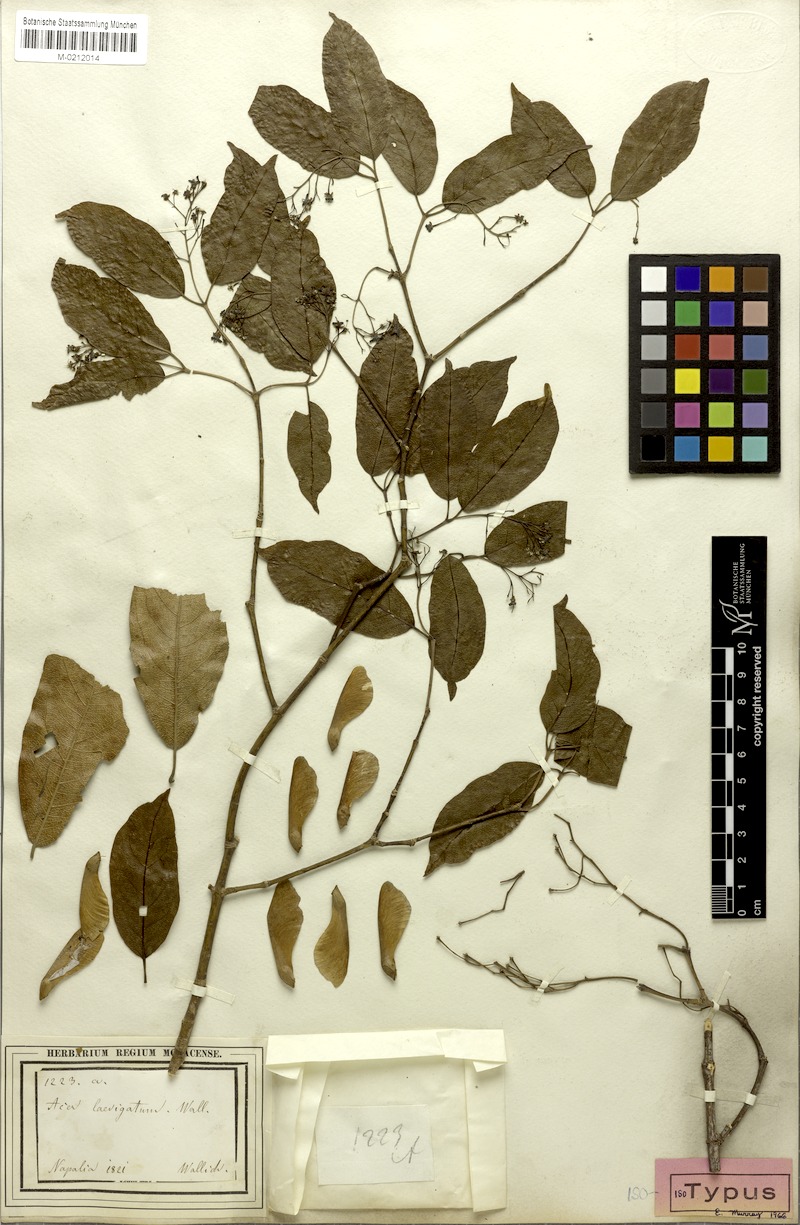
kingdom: Plantae
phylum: Tracheophyta
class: Magnoliopsida
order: Sapindales
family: Sapindaceae
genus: Acer
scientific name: Acer laevigatum
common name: Nepal maple
